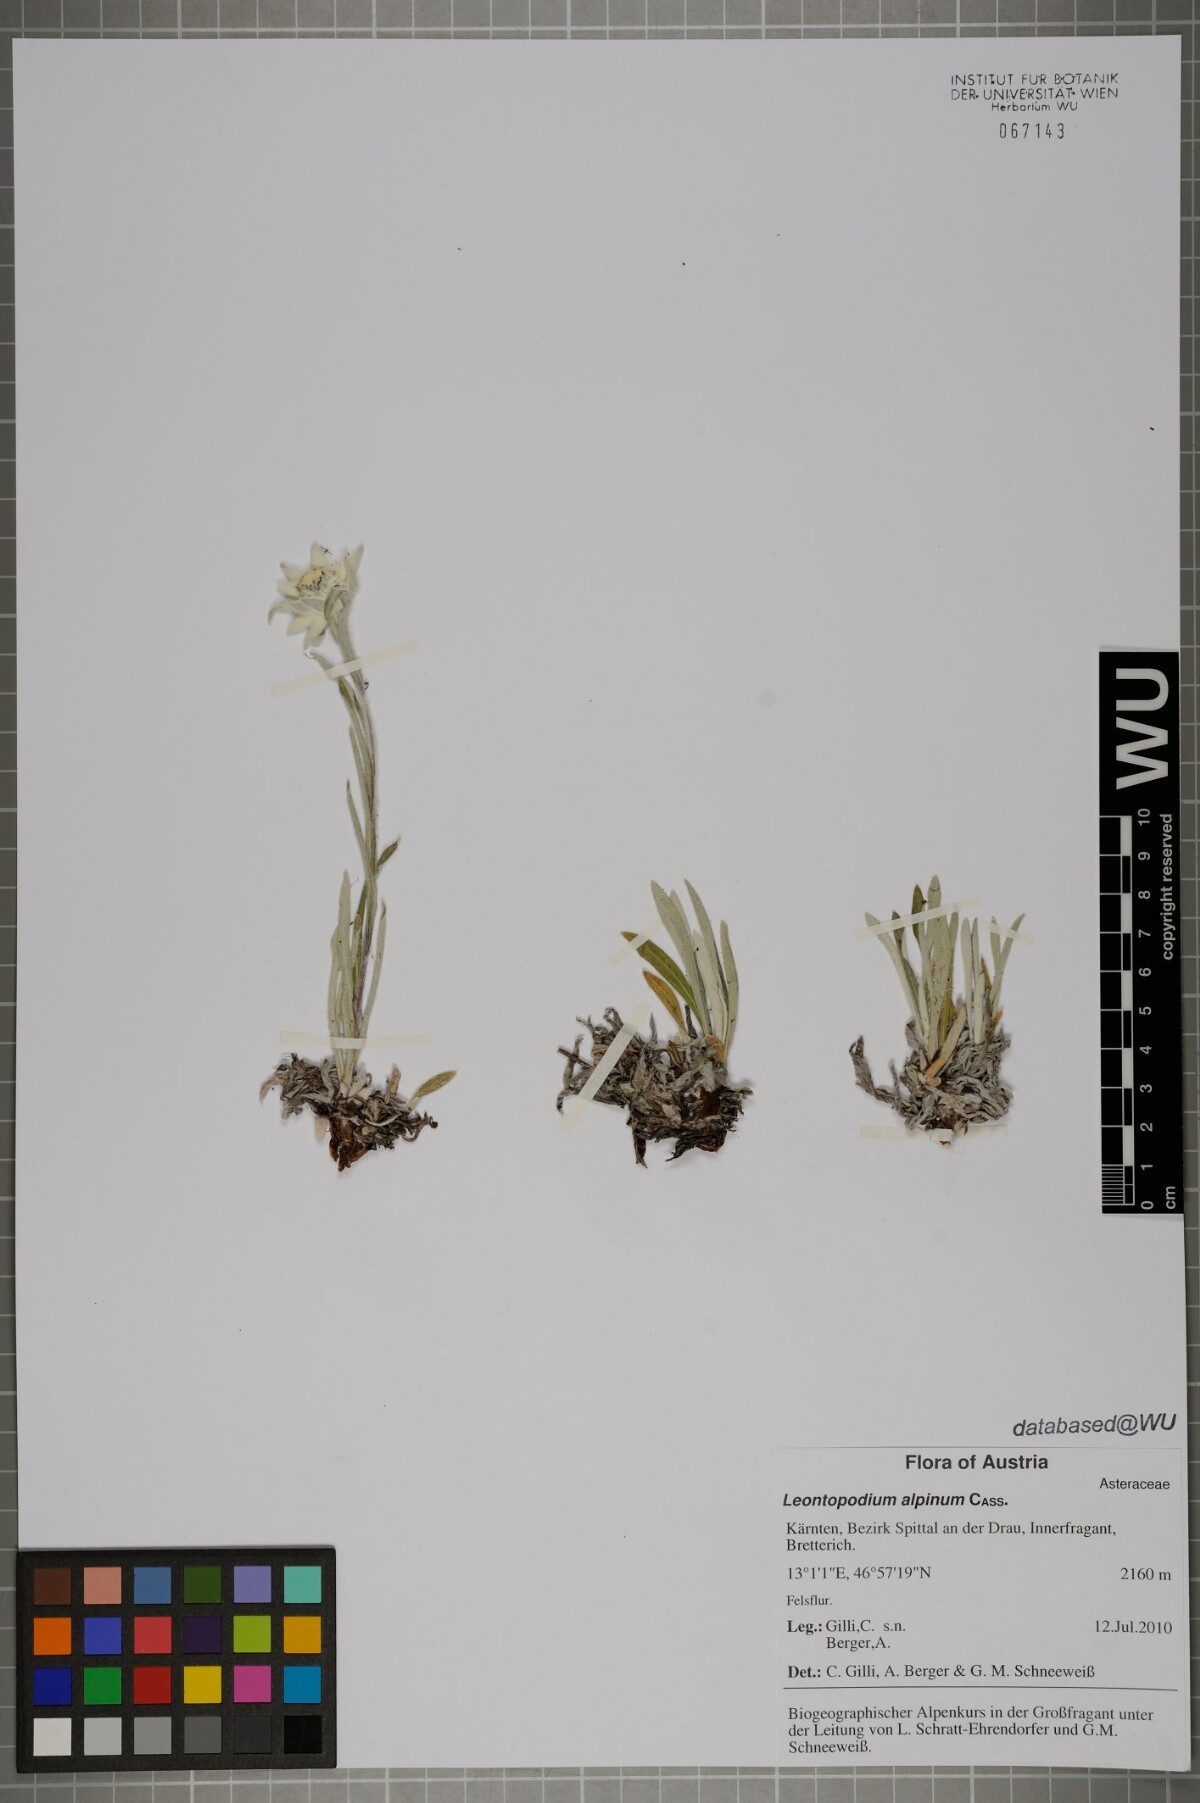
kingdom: Plantae
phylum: Tracheophyta
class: Magnoliopsida
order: Asterales
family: Asteraceae
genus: Leontopodium
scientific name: Leontopodium nivale
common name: Edelweiss
